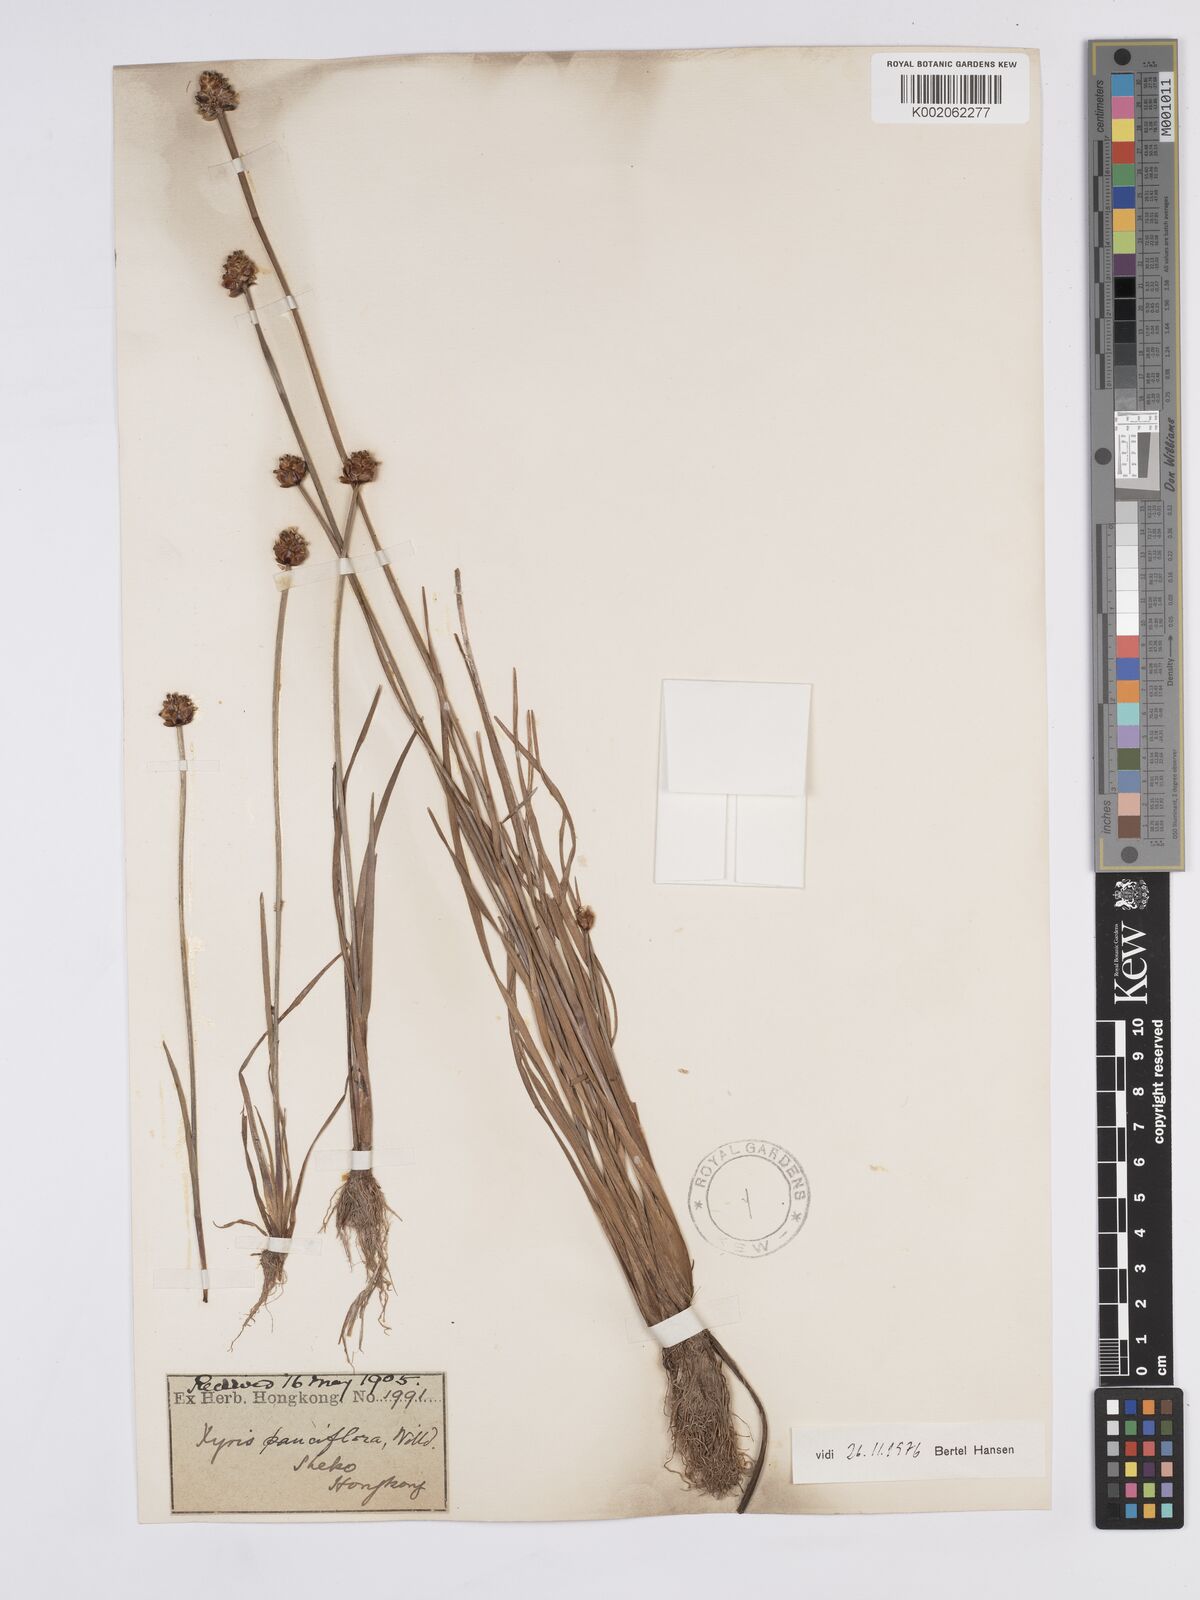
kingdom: Plantae
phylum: Tracheophyta
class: Liliopsida
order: Poales
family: Xyridaceae
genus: Xyris
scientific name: Xyris pauciflora
